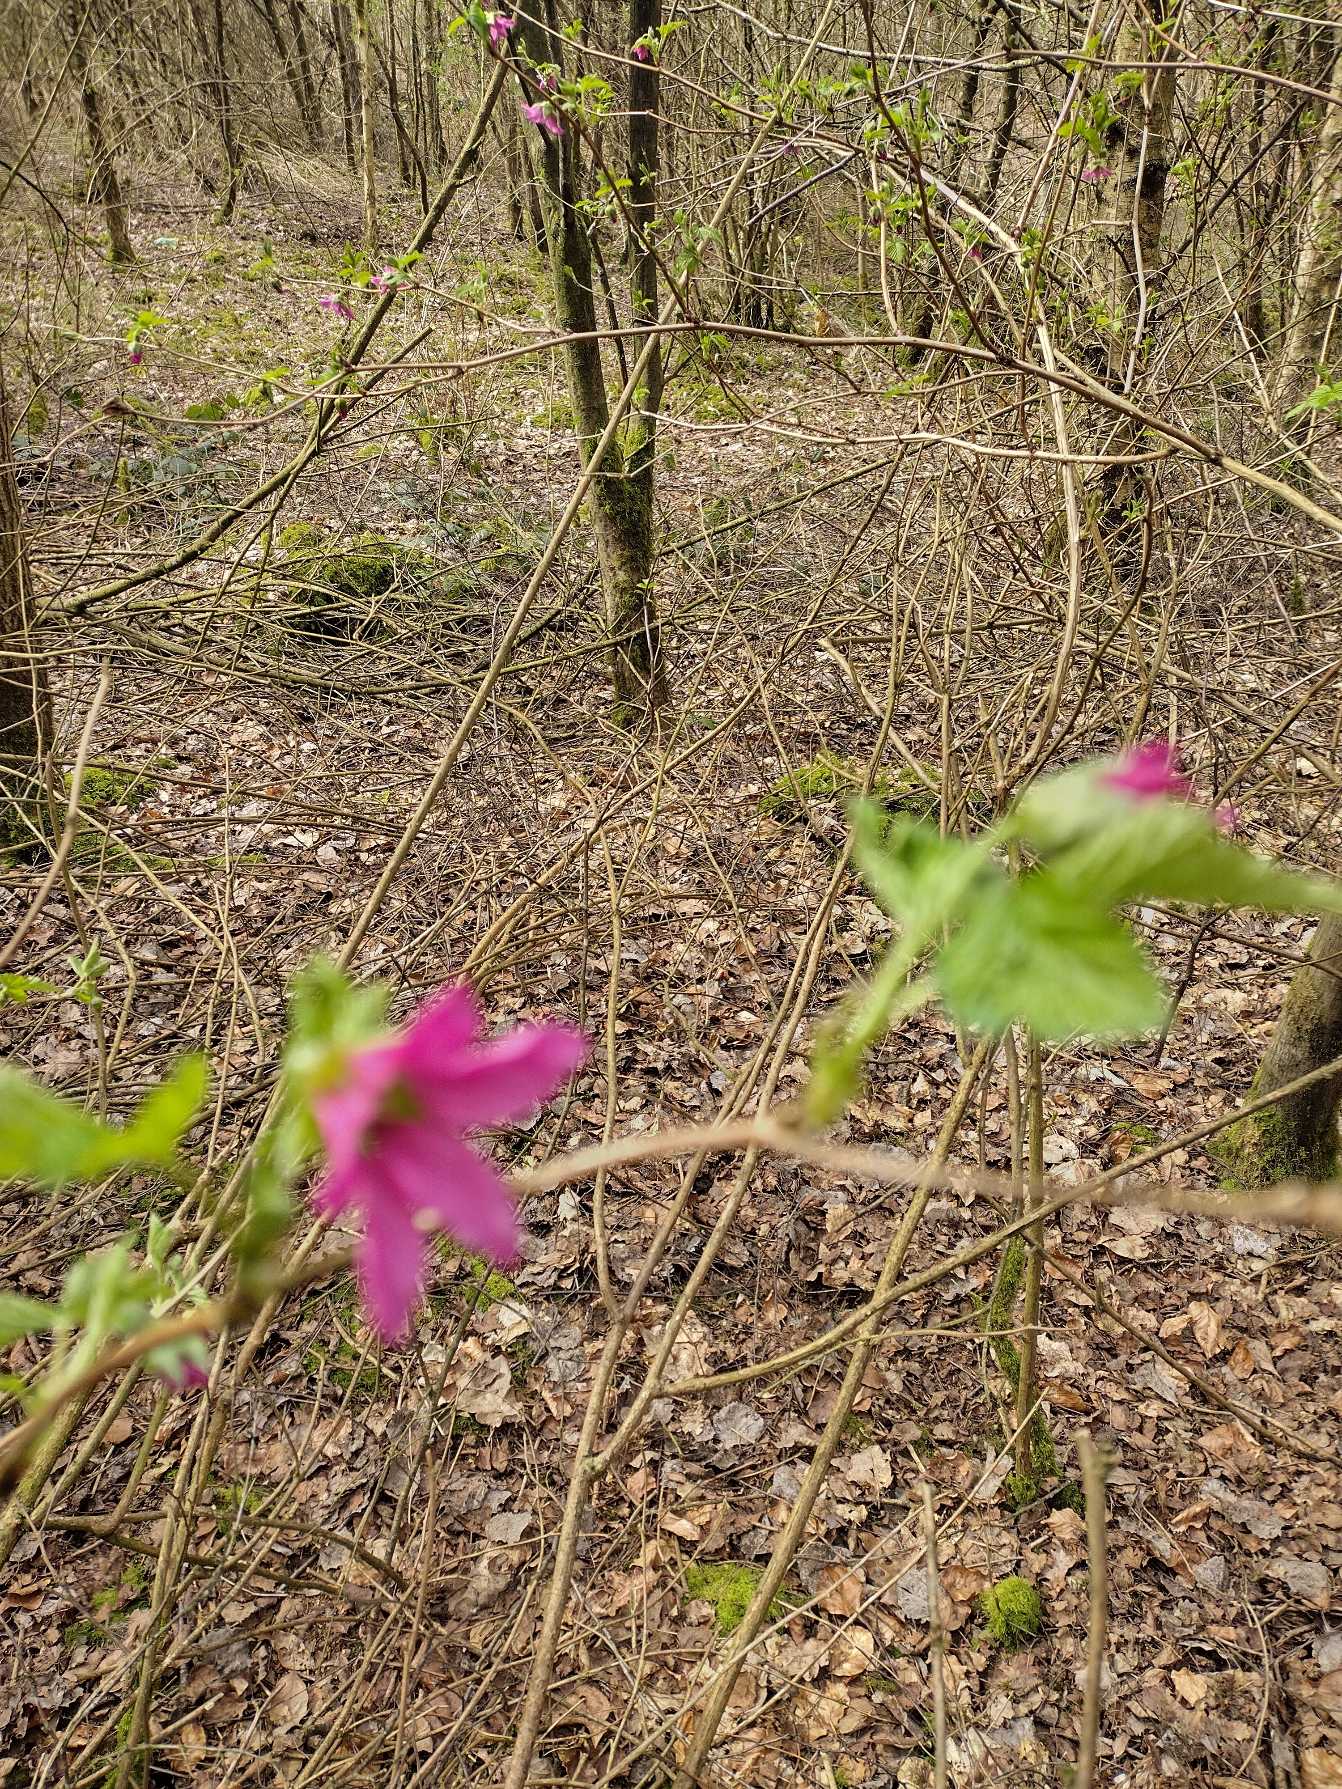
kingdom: Plantae
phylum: Tracheophyta
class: Magnoliopsida
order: Rosales
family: Rosaceae
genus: Rubus
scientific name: Rubus spectabilis
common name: Laksebær
